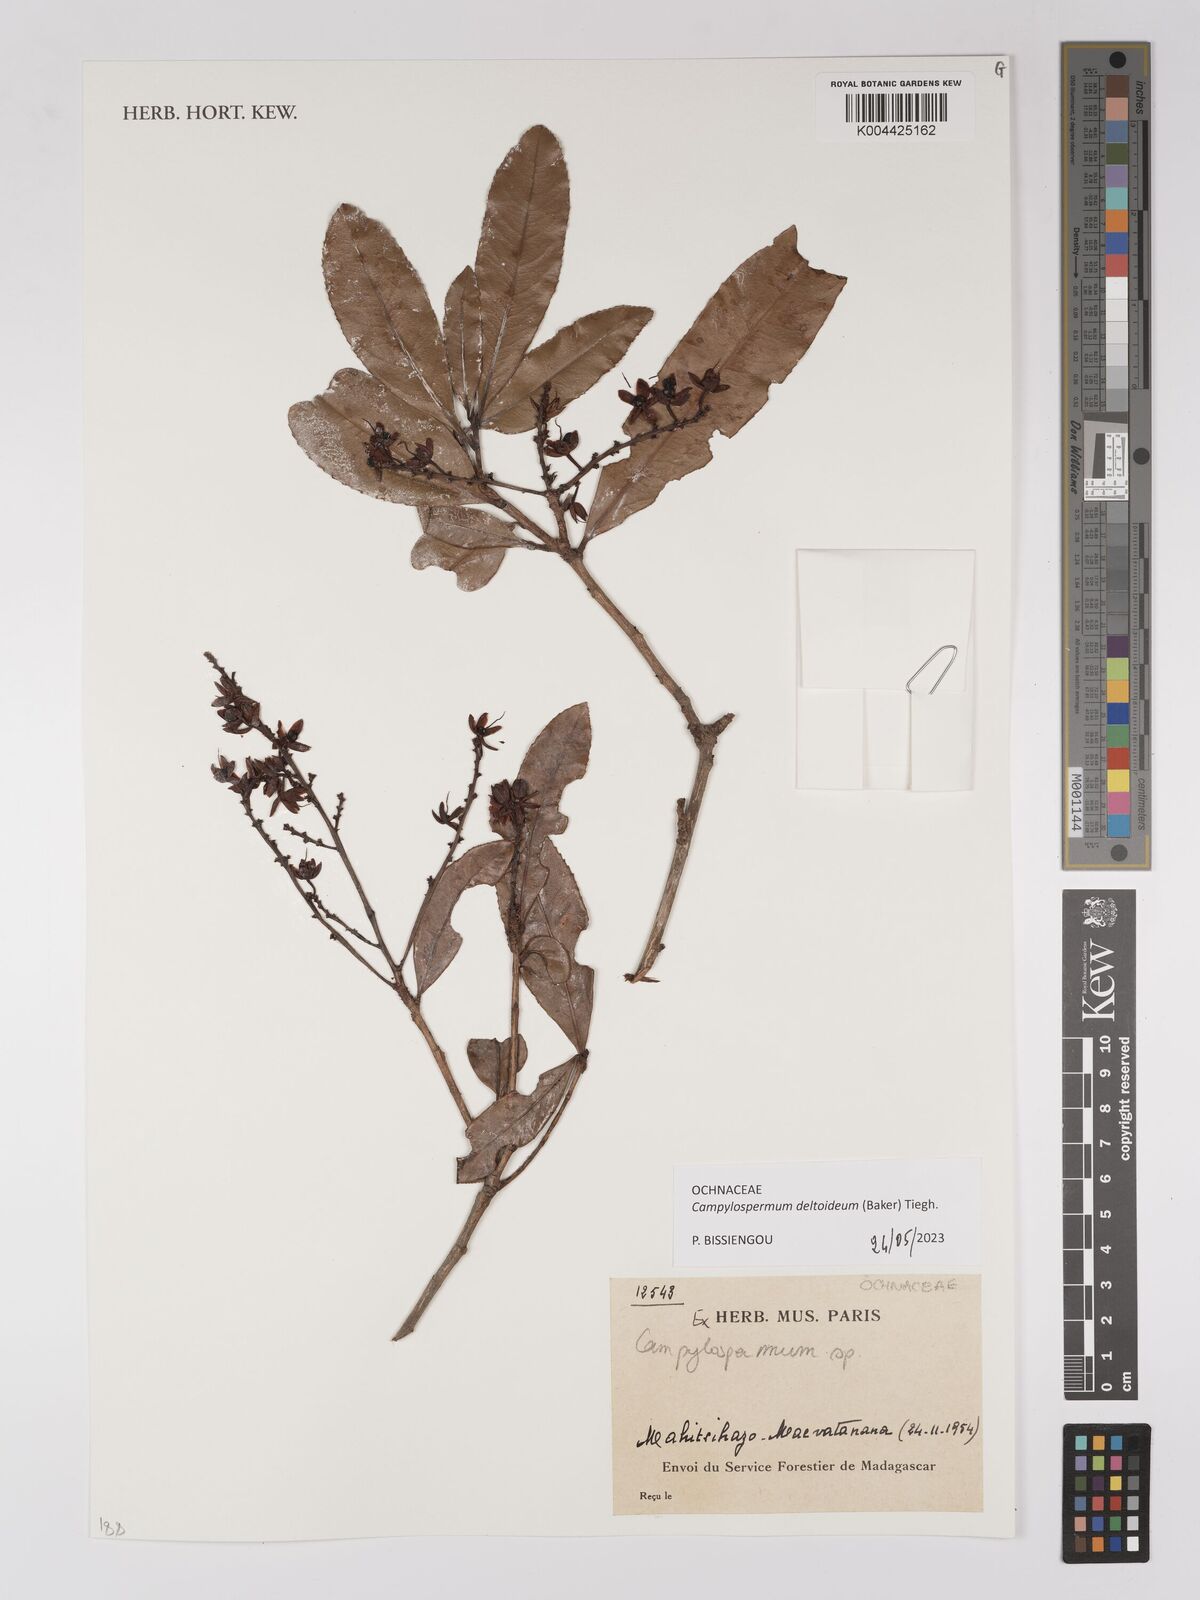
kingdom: Plantae
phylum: Tracheophyta
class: Magnoliopsida
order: Malpighiales
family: Ochnaceae
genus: Campylospermum
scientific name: Campylospermum
